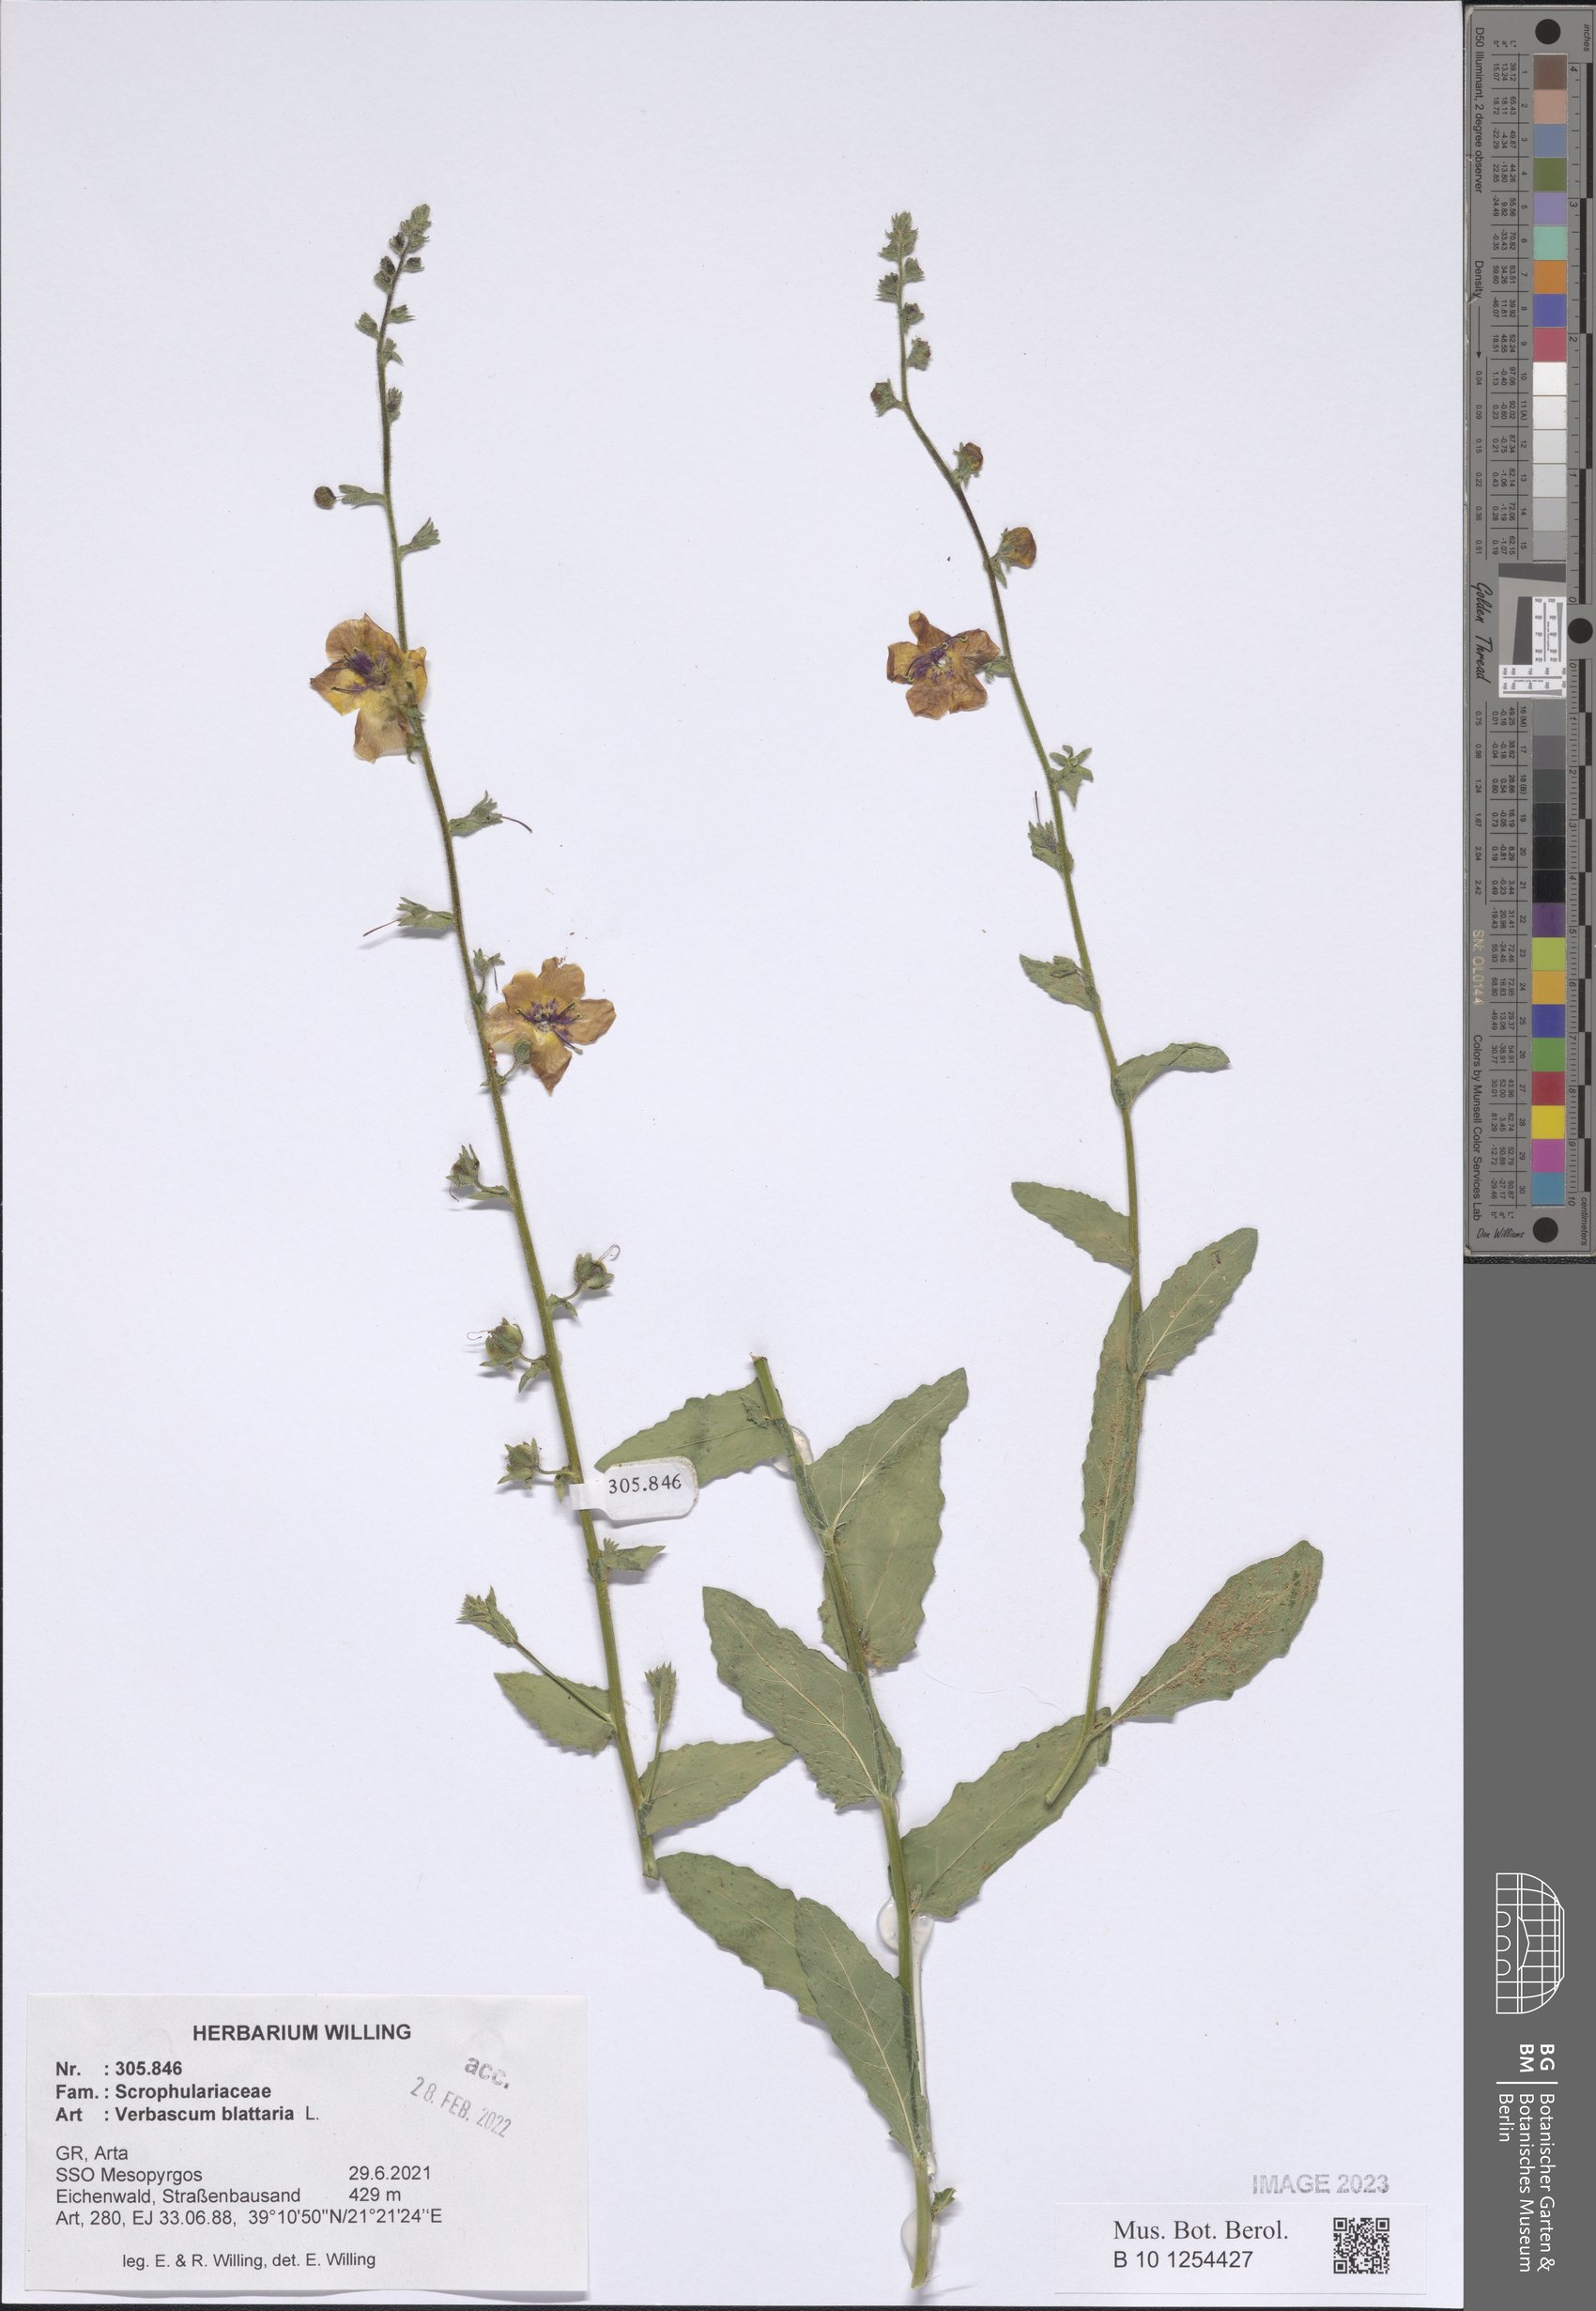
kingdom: Plantae
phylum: Tracheophyta
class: Magnoliopsida
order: Lamiales
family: Scrophulariaceae
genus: Verbascum
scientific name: Verbascum blattaria
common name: Moth mullein
